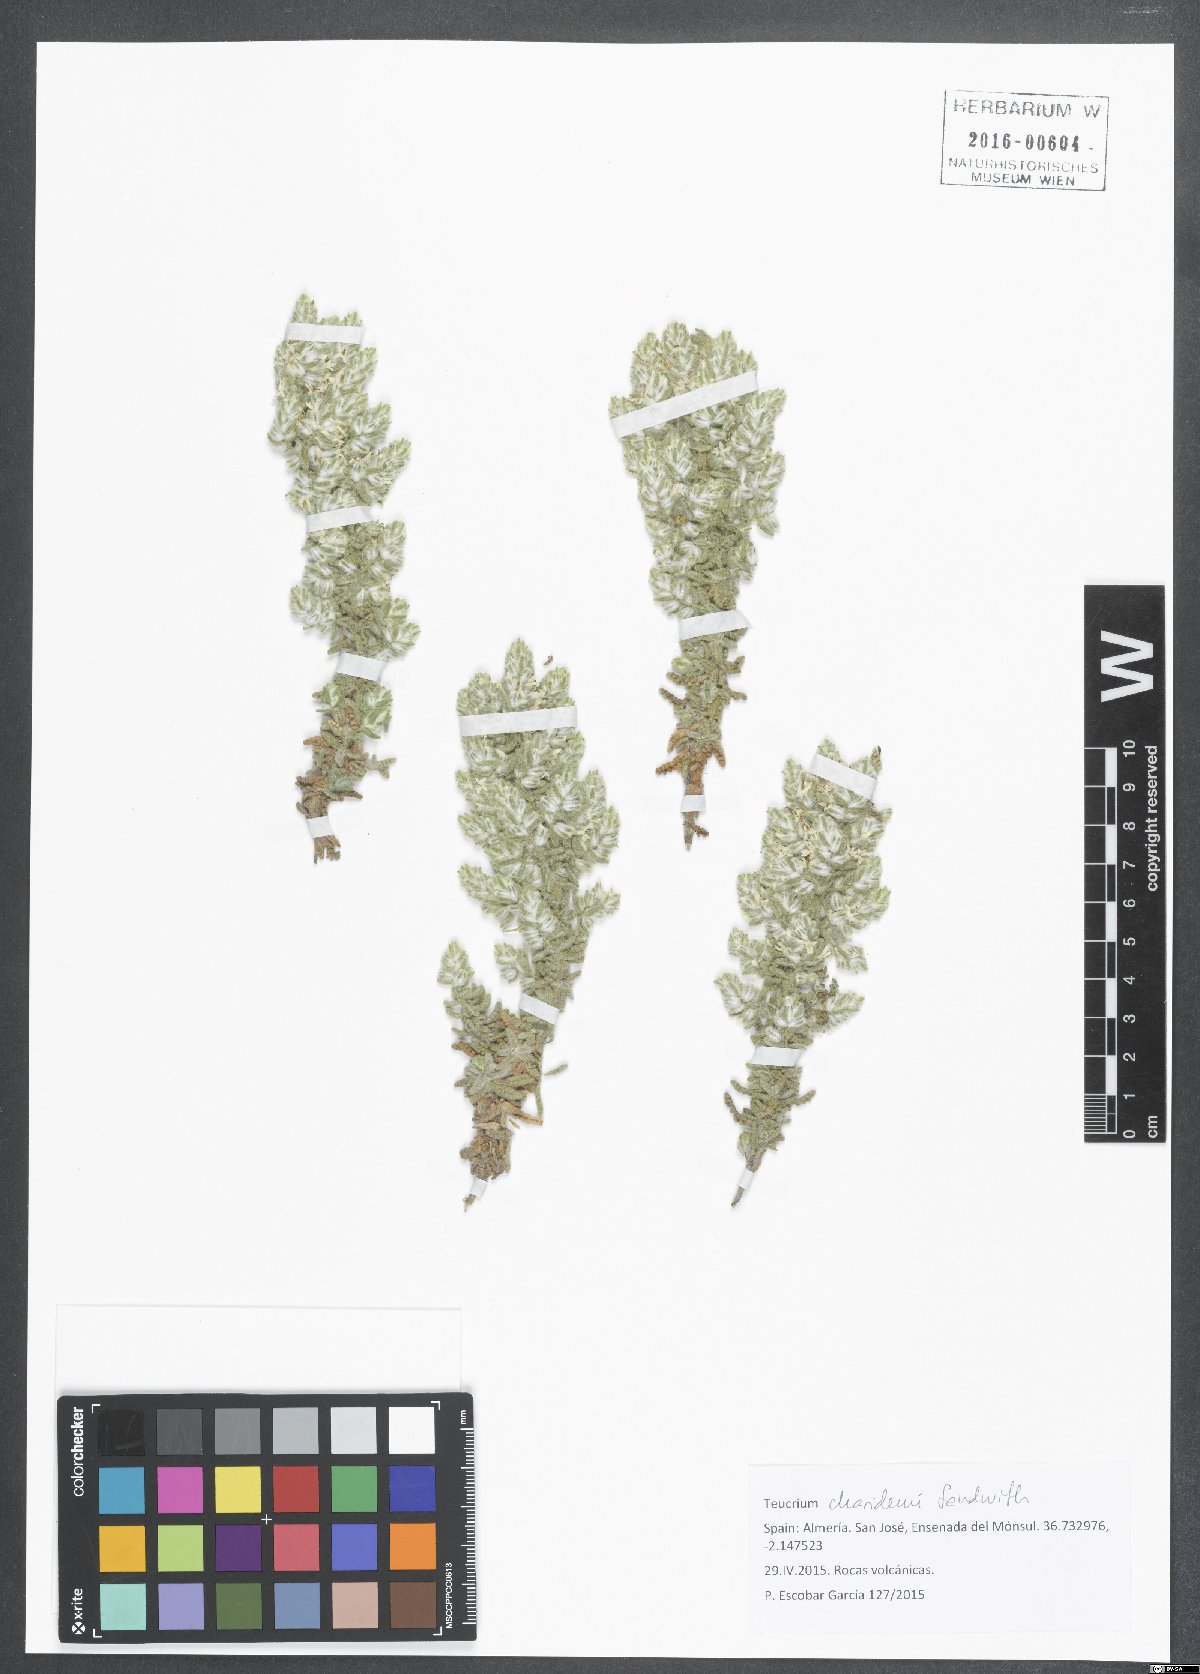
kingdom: Plantae
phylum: Tracheophyta
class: Magnoliopsida
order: Lamiales
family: Lamiaceae
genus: Teucrium
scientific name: Teucrium charidemi
